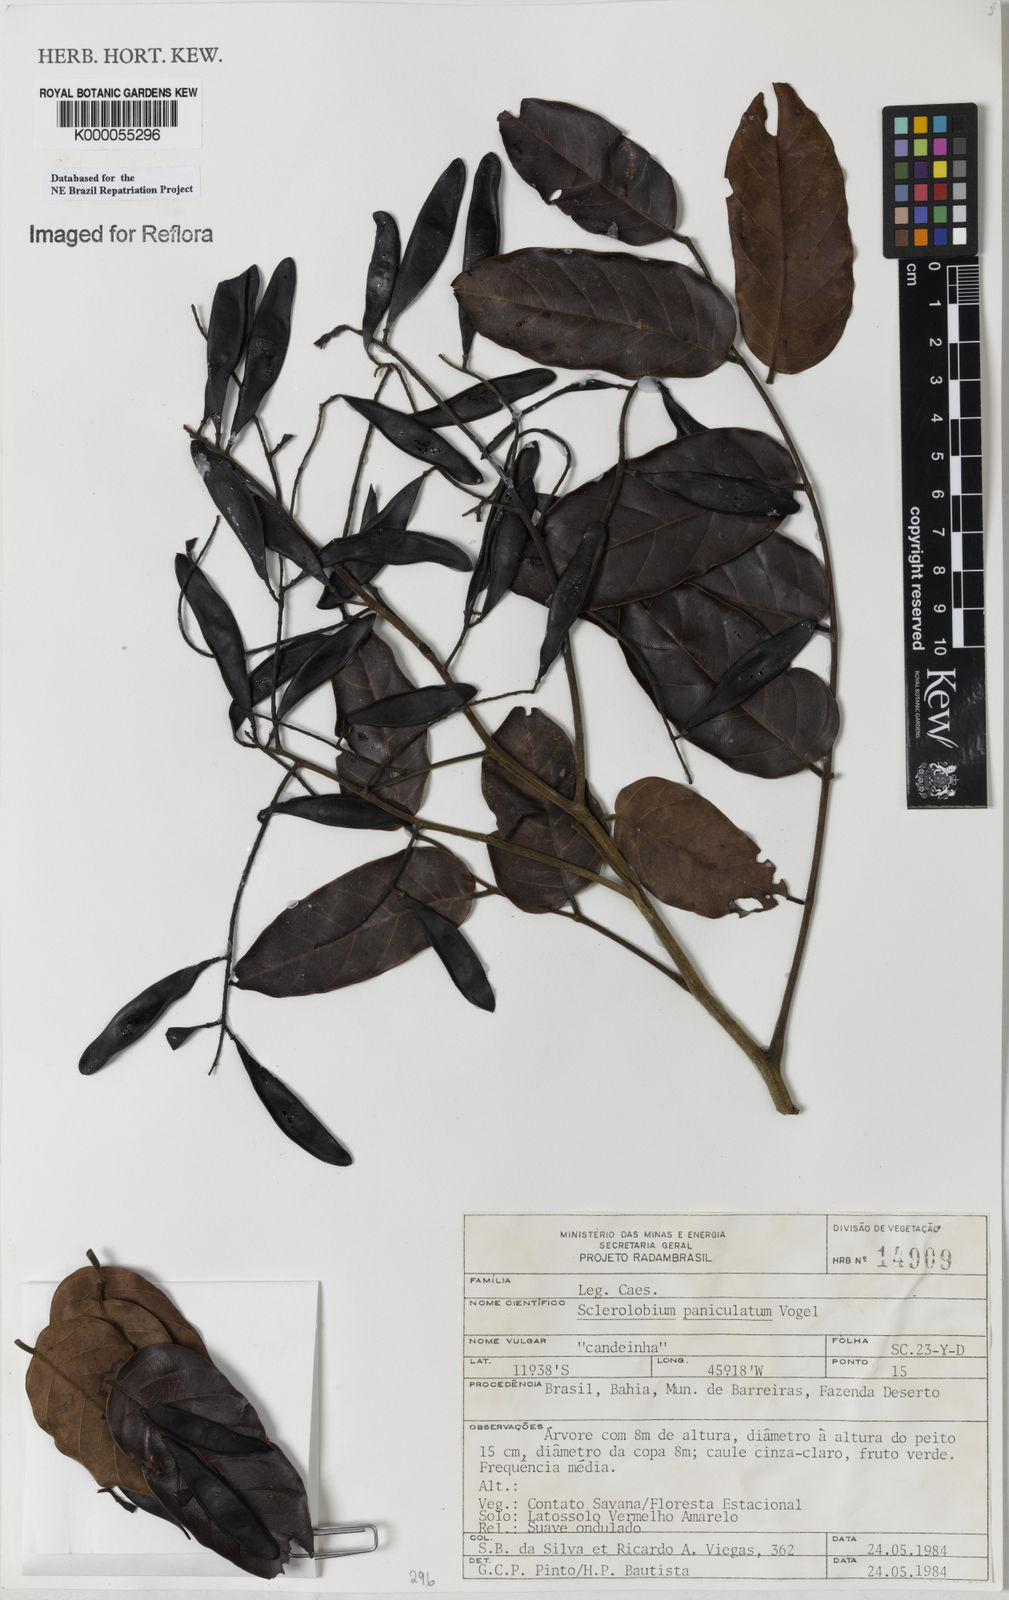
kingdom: Plantae
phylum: Tracheophyta
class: Magnoliopsida
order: Fabales
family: Fabaceae
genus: Tachigali
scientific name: Tachigali vulgaris
